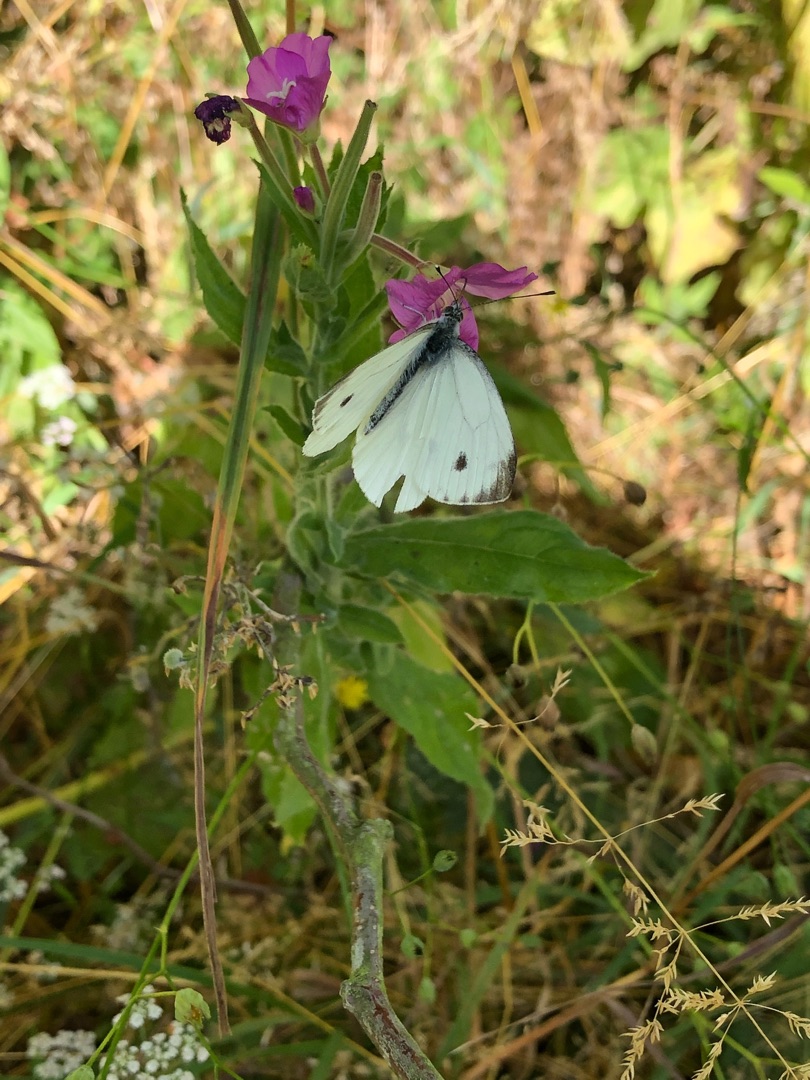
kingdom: Animalia
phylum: Arthropoda
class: Insecta
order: Lepidoptera
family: Pieridae
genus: Pieris
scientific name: Pieris napi
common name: Grønåret kålsommerfugl
